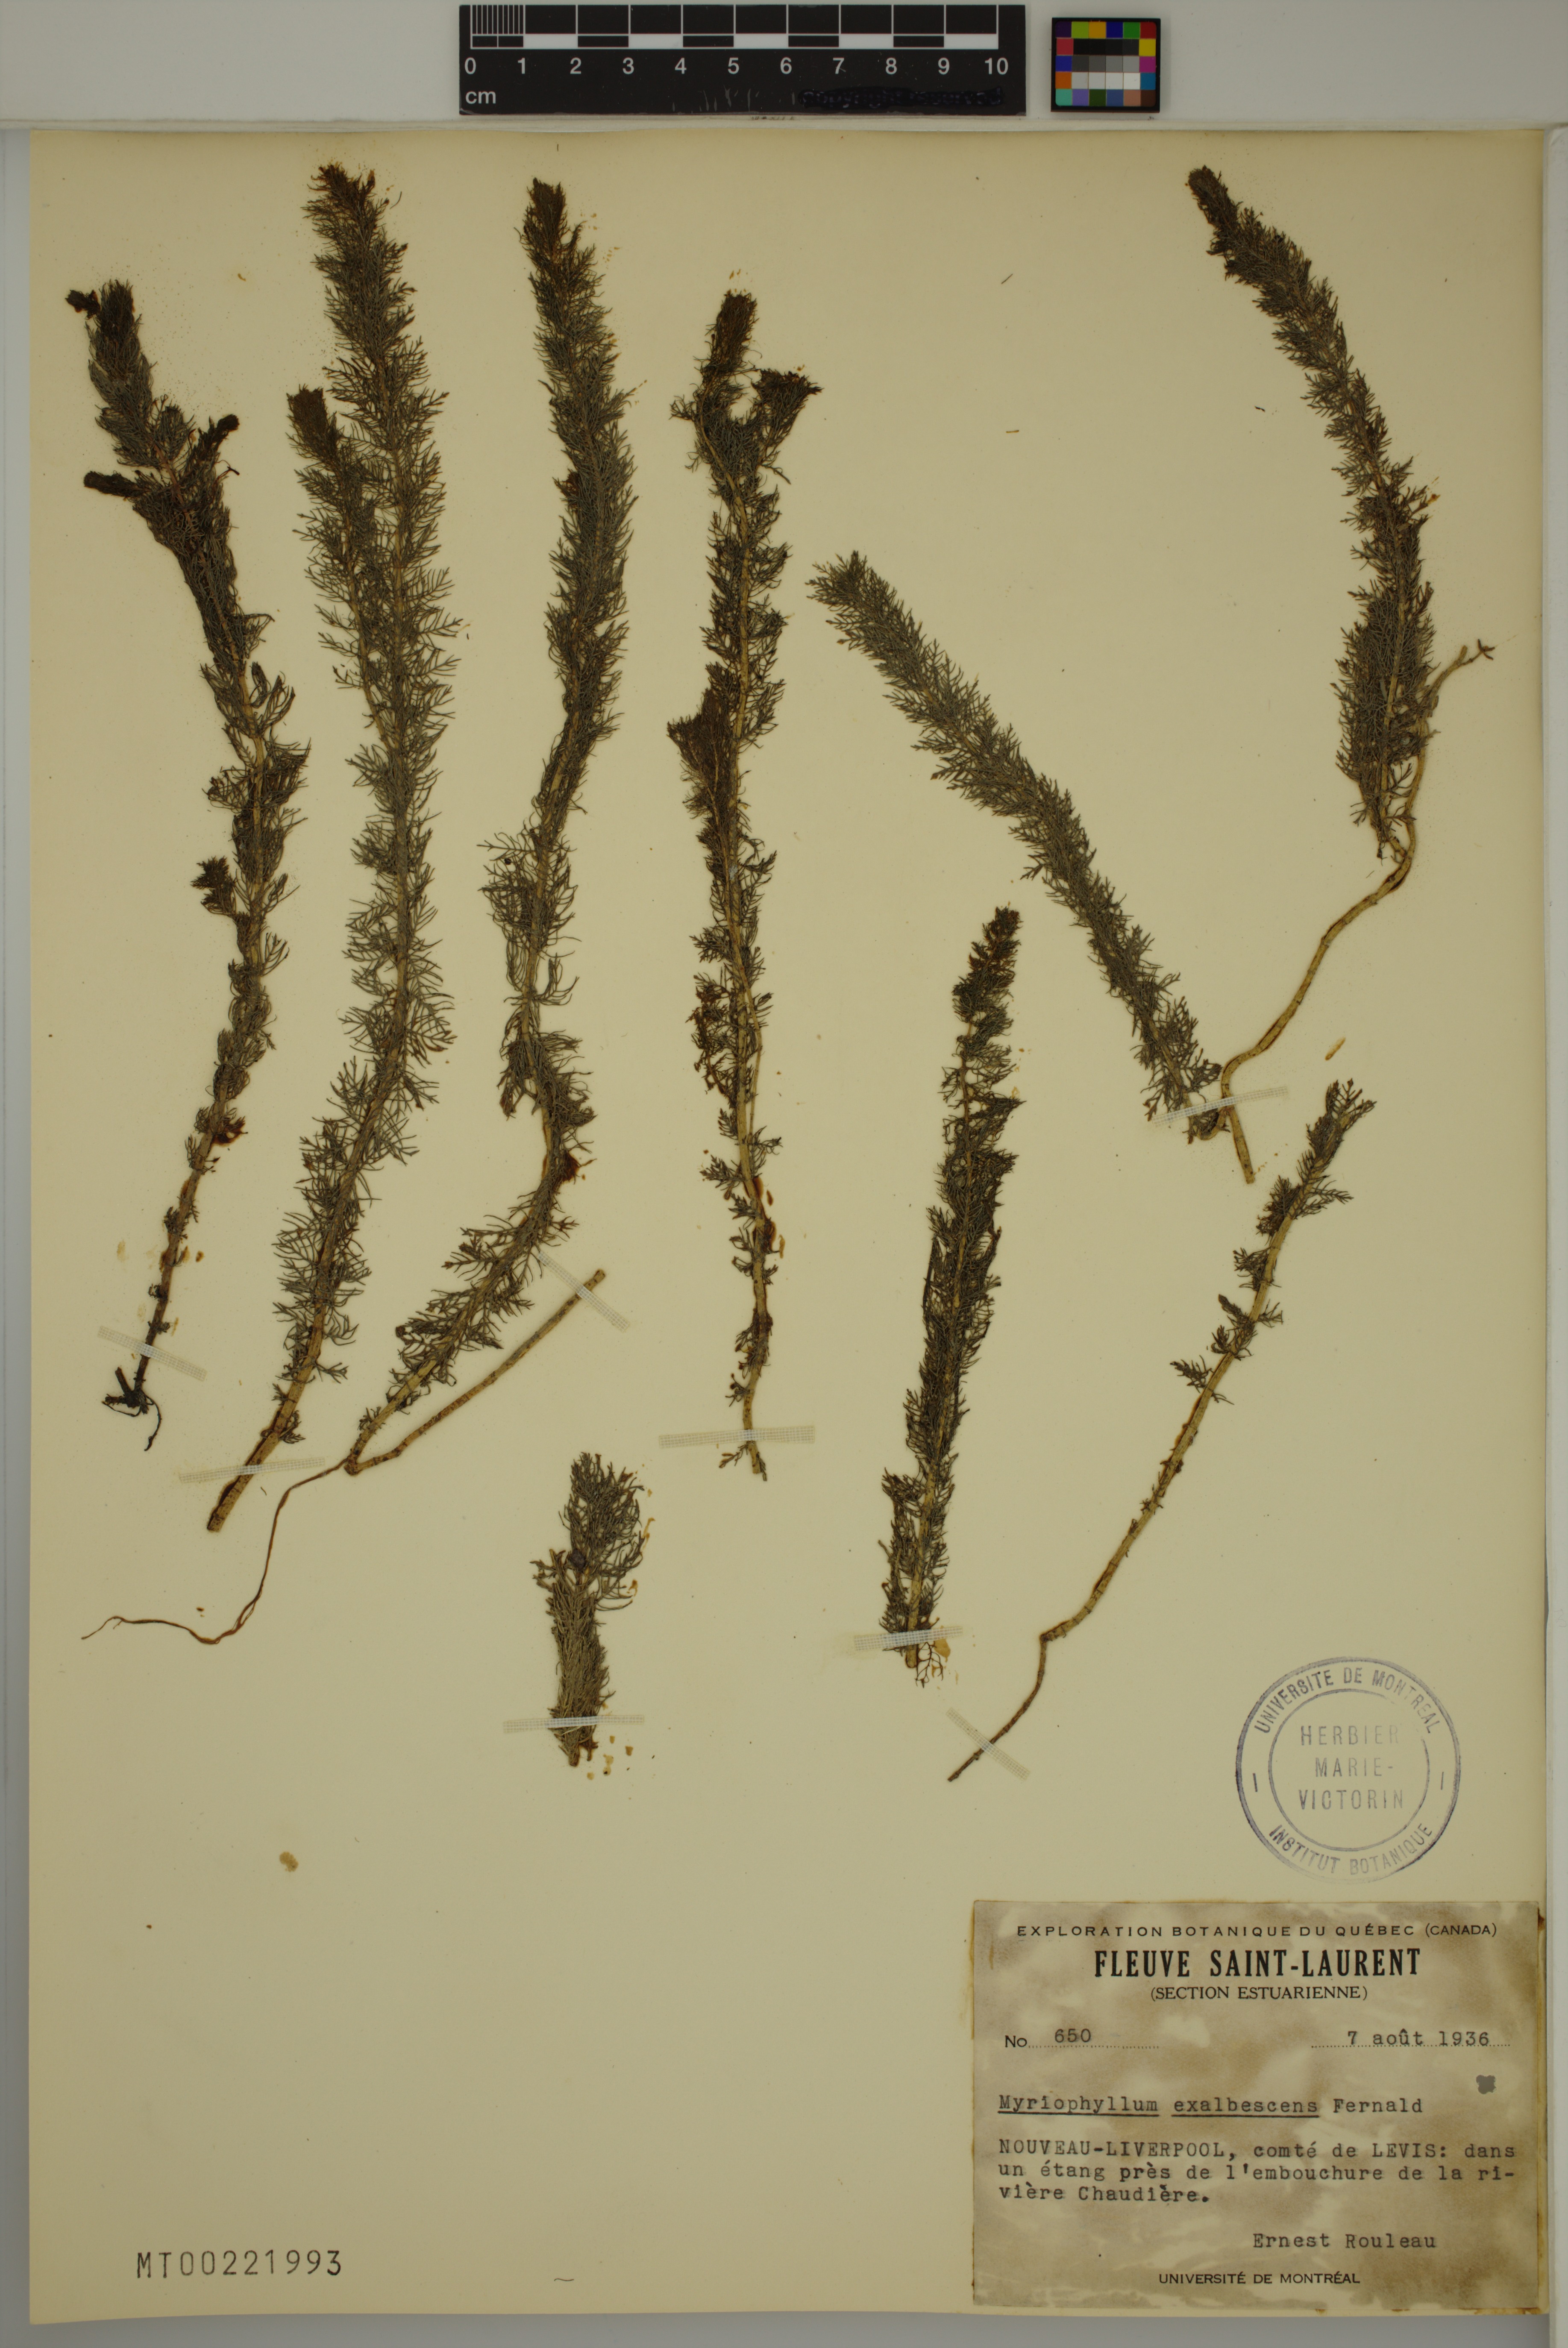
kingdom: Plantae
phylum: Tracheophyta
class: Magnoliopsida
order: Saxifragales
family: Haloragaceae
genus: Myriophyllum
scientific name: Myriophyllum sibiricum
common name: Siberian water-milfoil
